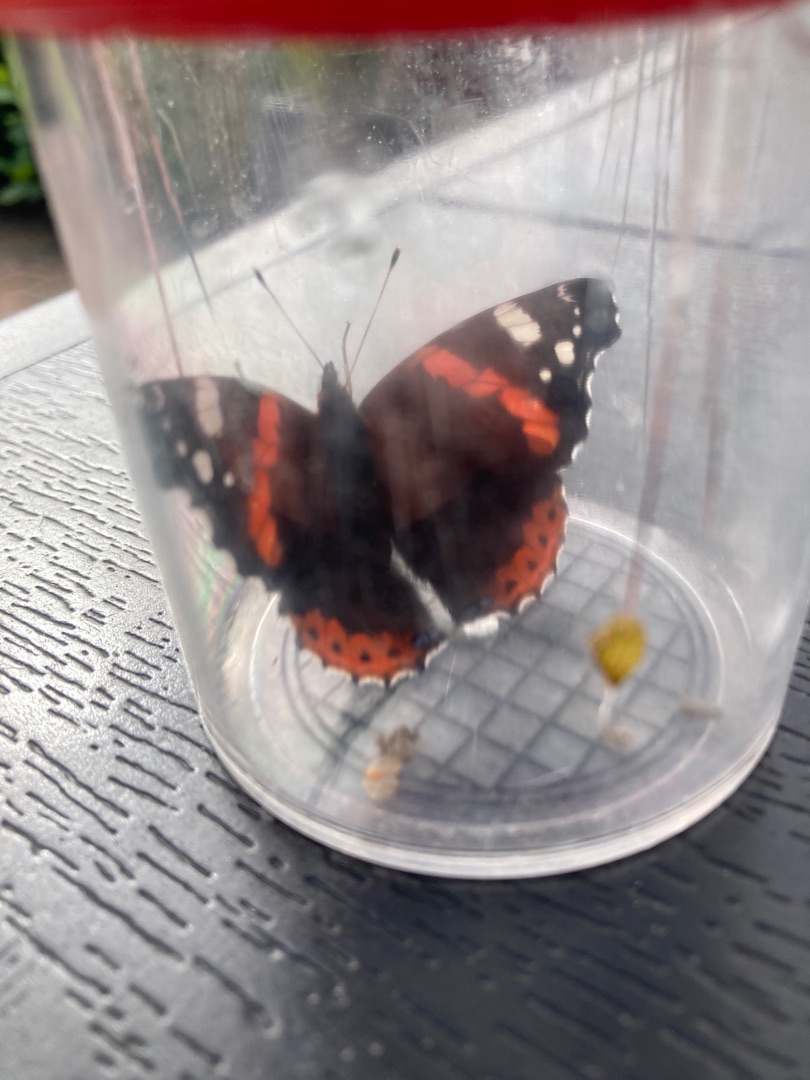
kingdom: Animalia
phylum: Arthropoda
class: Insecta
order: Lepidoptera
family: Nymphalidae
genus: Vanessa
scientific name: Vanessa atalanta
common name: Admiral
